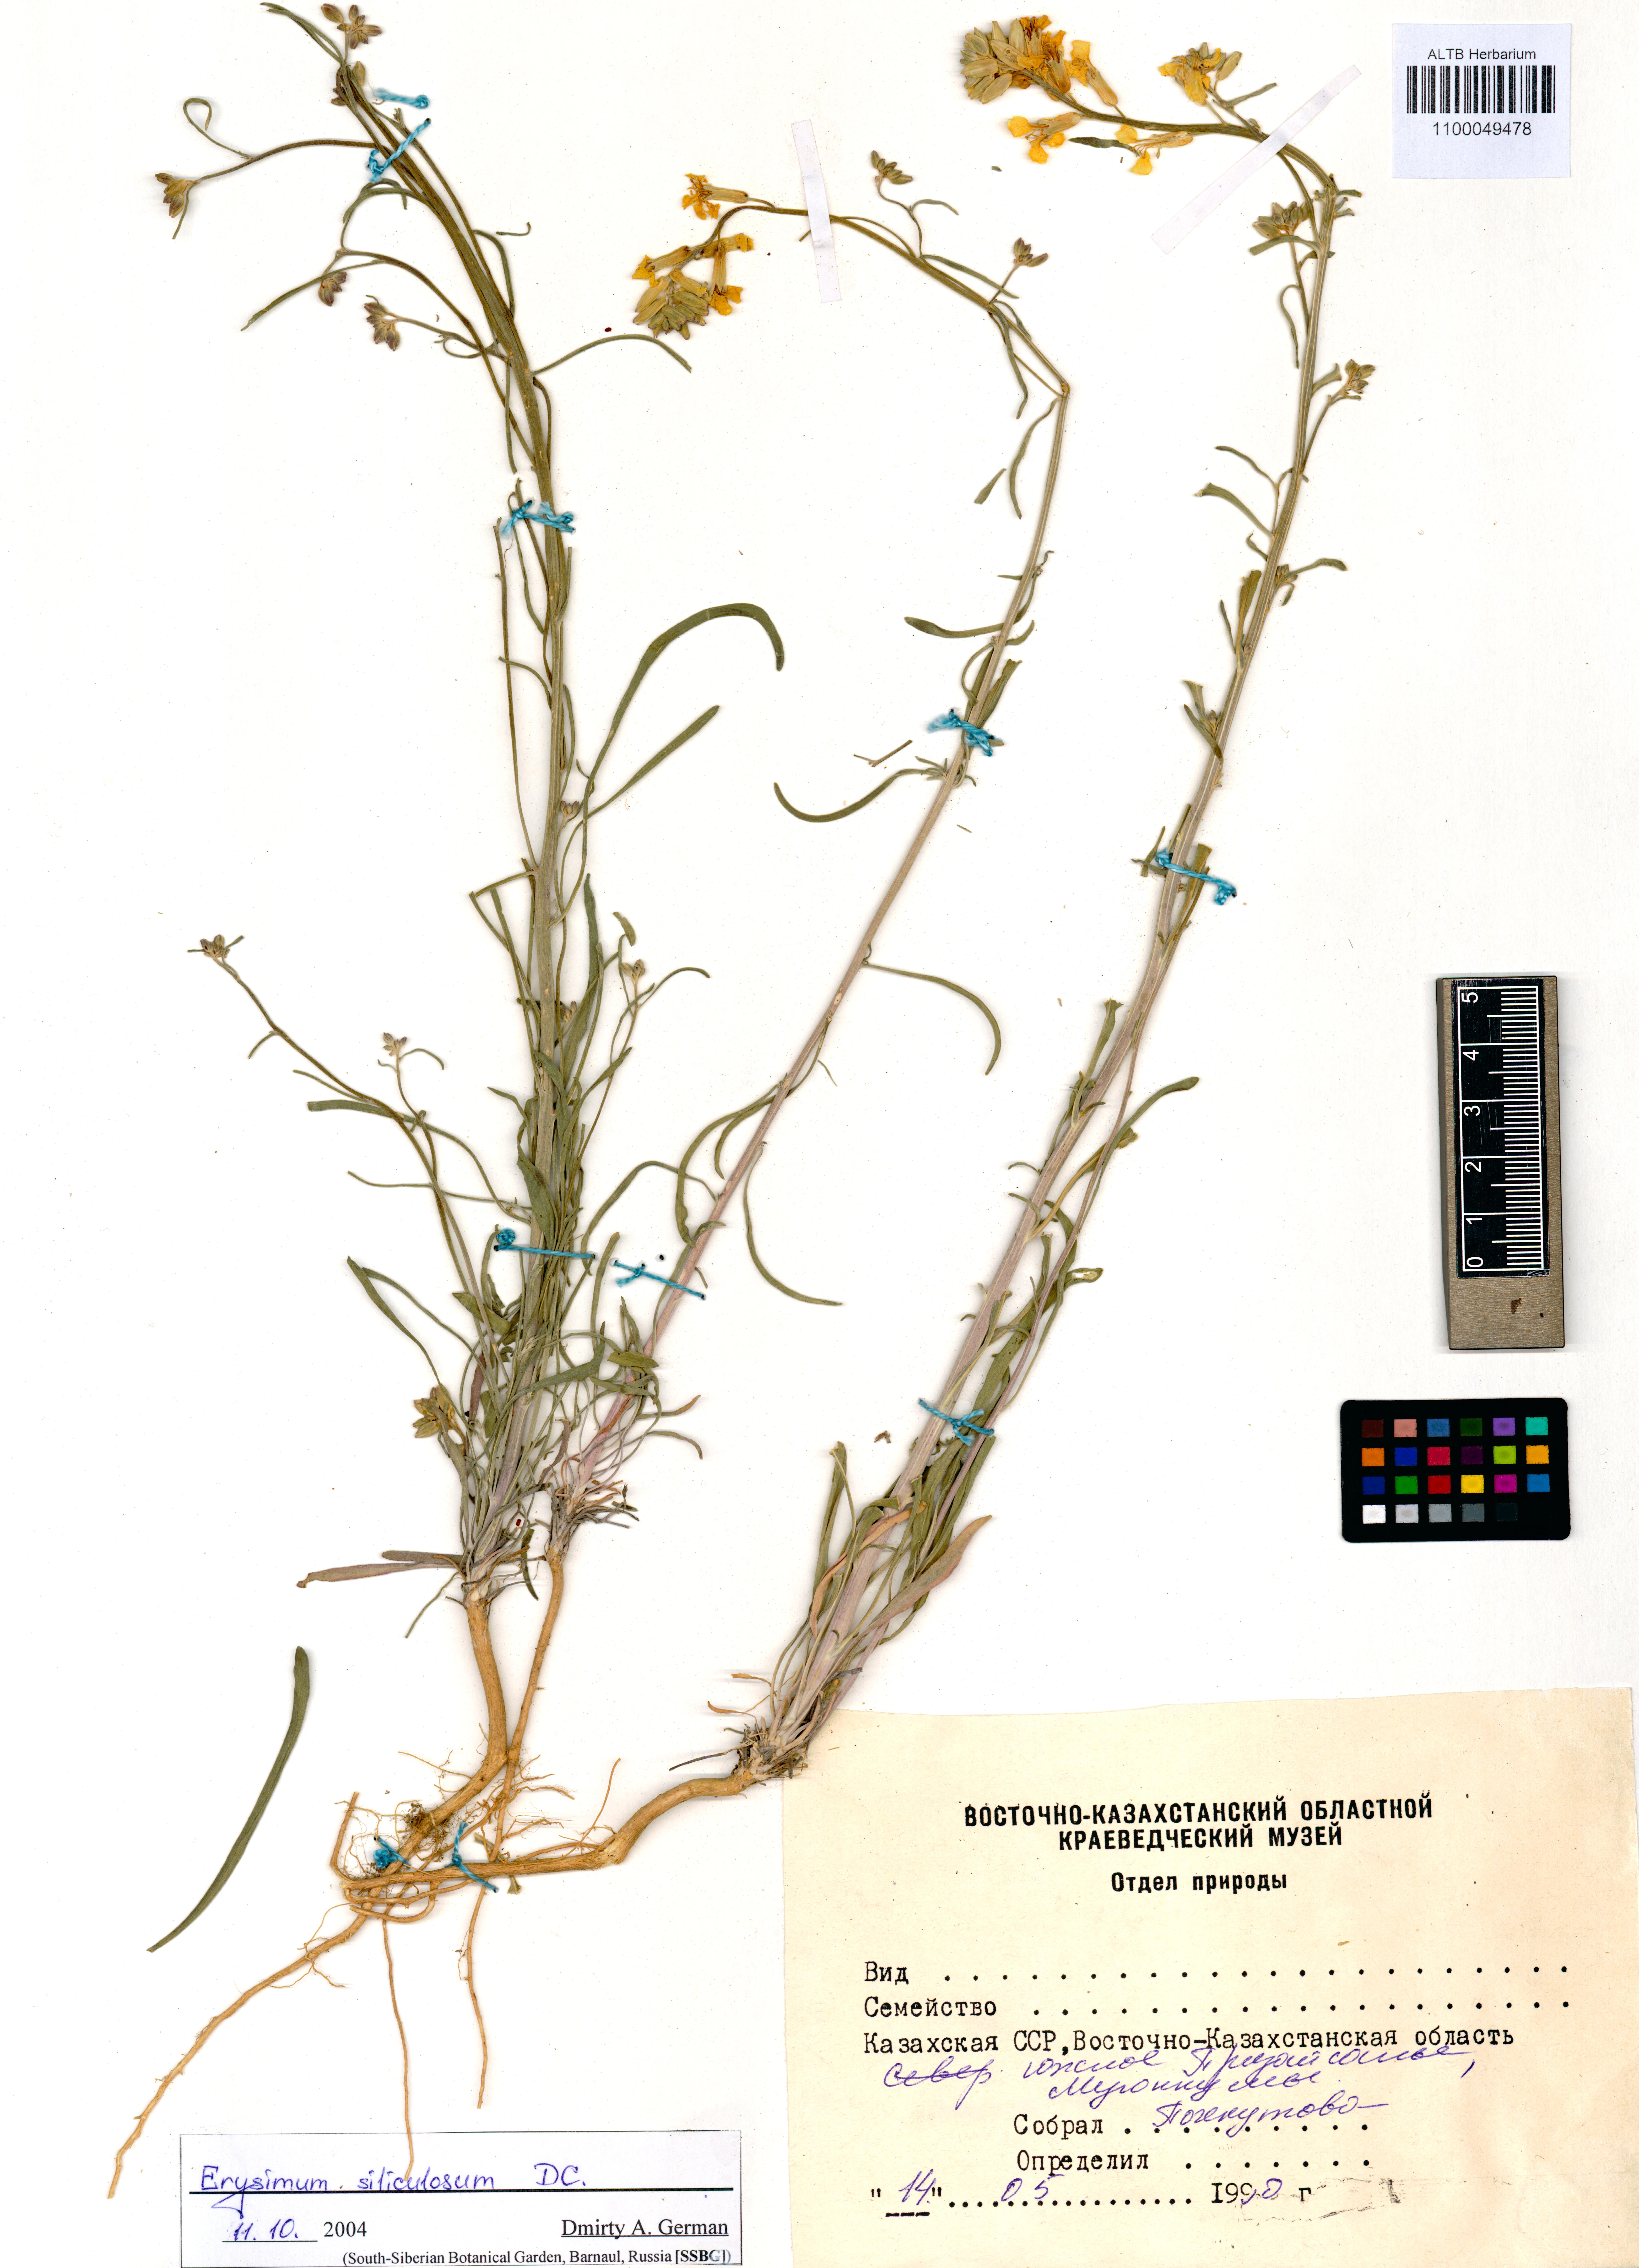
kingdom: Plantae
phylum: Tracheophyta
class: Magnoliopsida
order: Brassicales
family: Brassicaceae
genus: Erysimum
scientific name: Erysimum siliculosum
